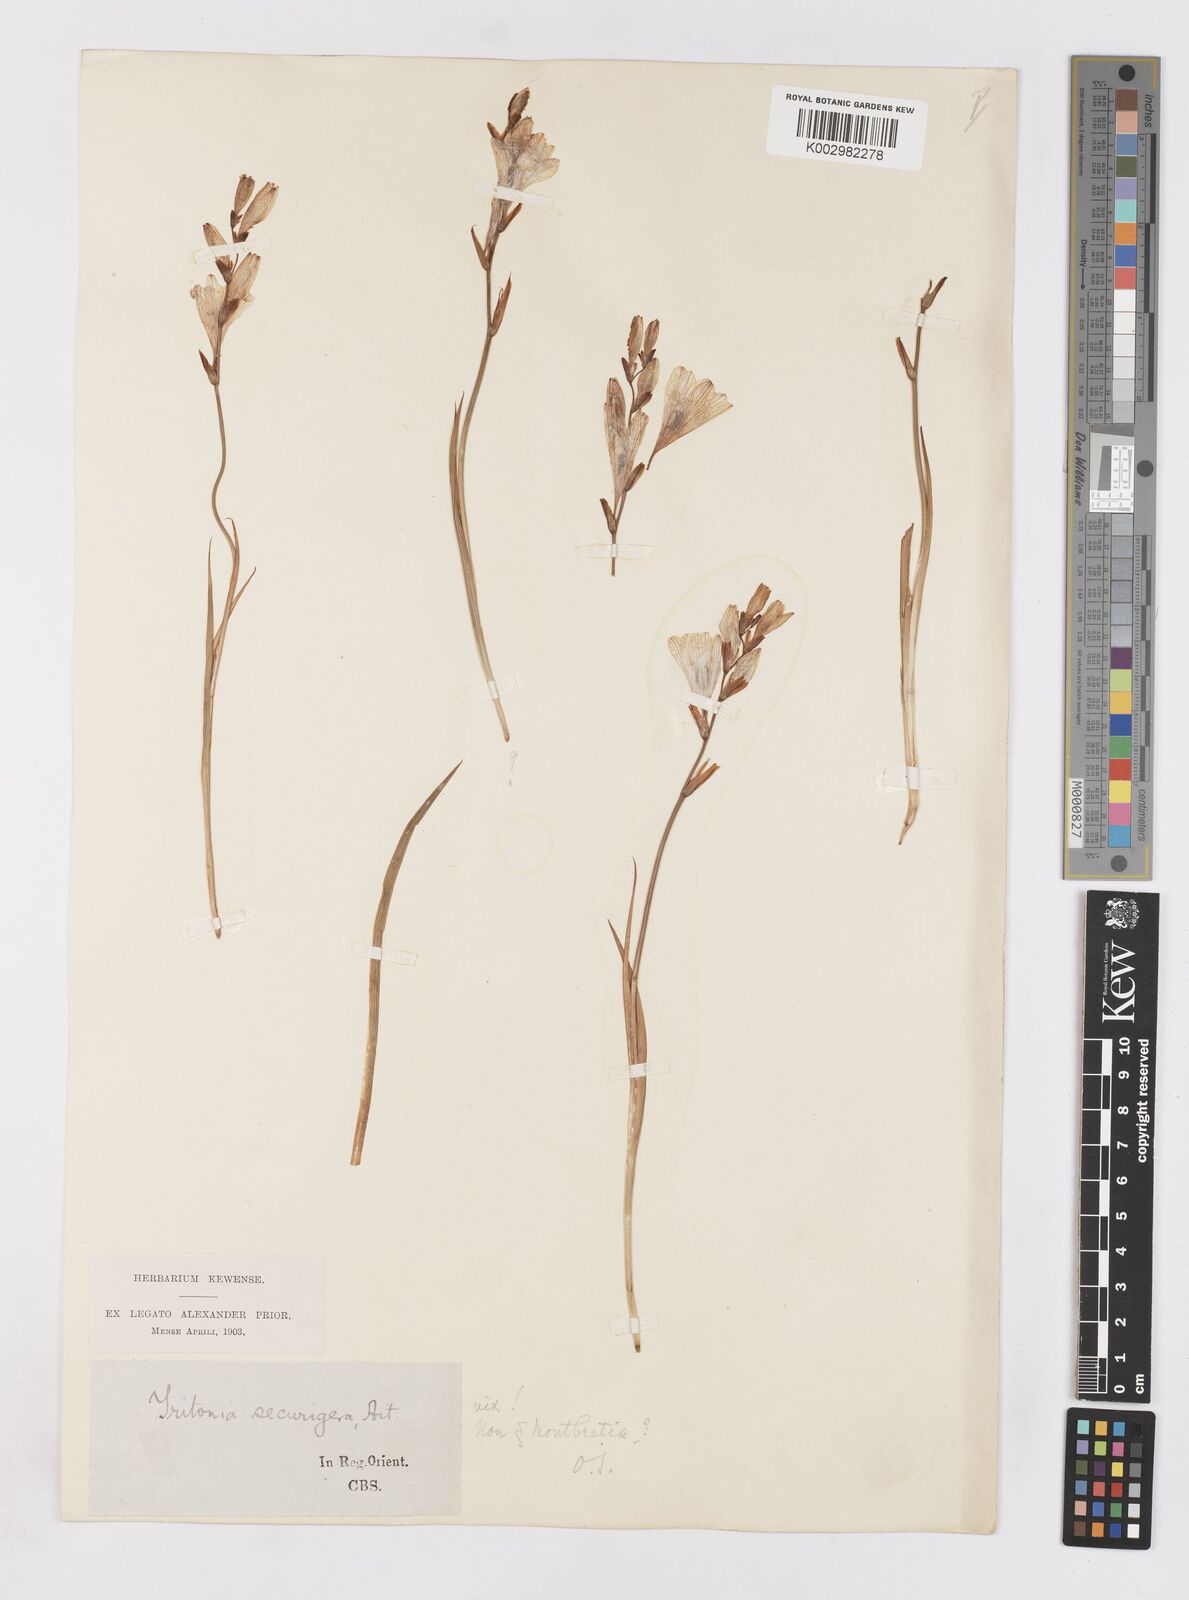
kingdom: Plantae
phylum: Tracheophyta
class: Liliopsida
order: Asparagales
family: Iridaceae
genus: Tritonia
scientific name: Tritonia disticha
